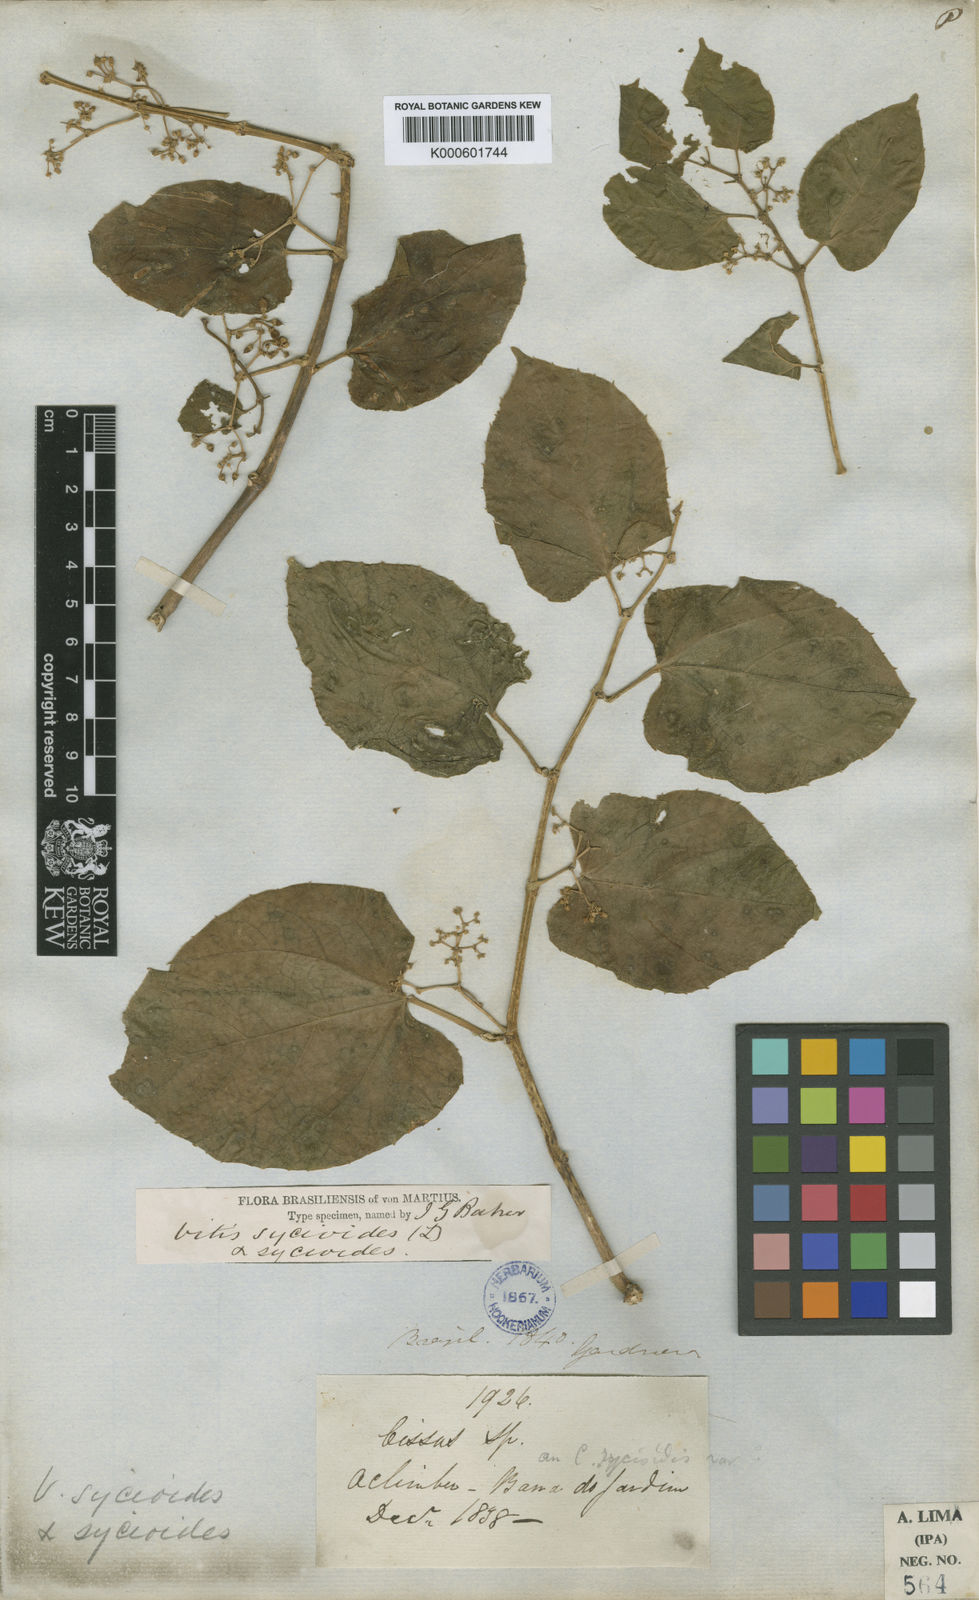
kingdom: Plantae
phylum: Tracheophyta
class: Magnoliopsida
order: Vitales
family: Vitaceae
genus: Cissus
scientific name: Cissus verticillata
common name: Princess vine
